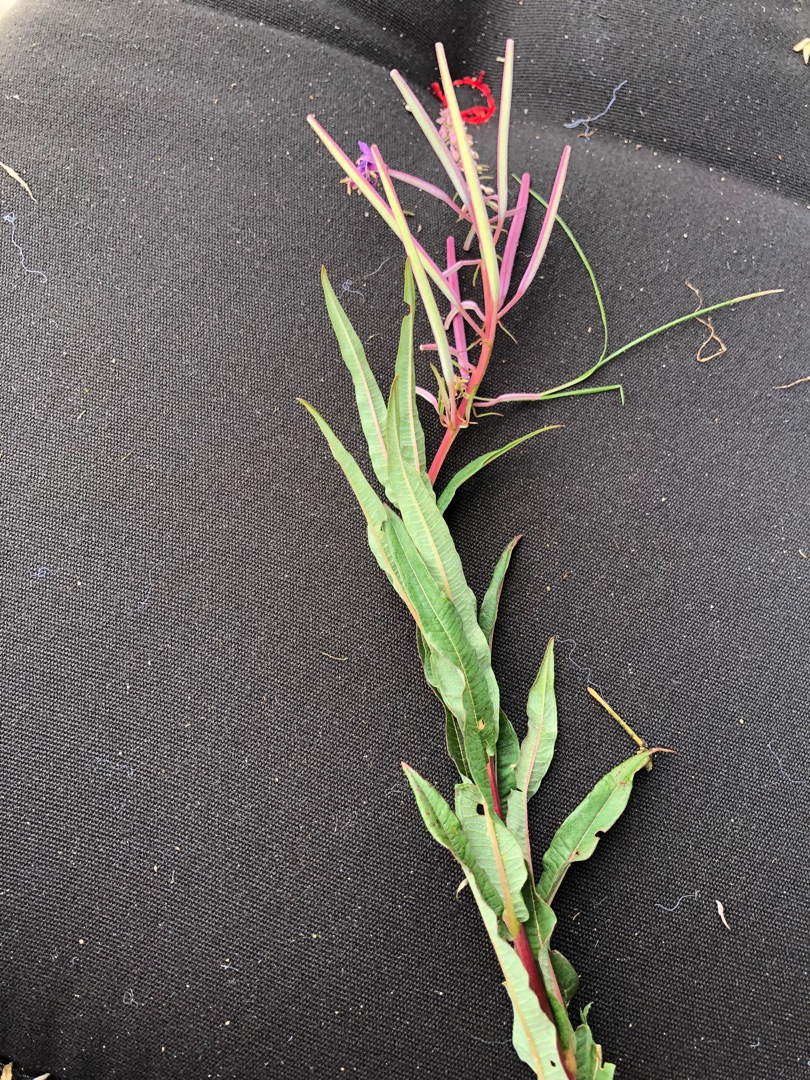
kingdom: Plantae
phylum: Tracheophyta
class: Magnoliopsida
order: Myrtales
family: Onagraceae
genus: Chamaenerion
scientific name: Chamaenerion angustifolium
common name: Gederams
